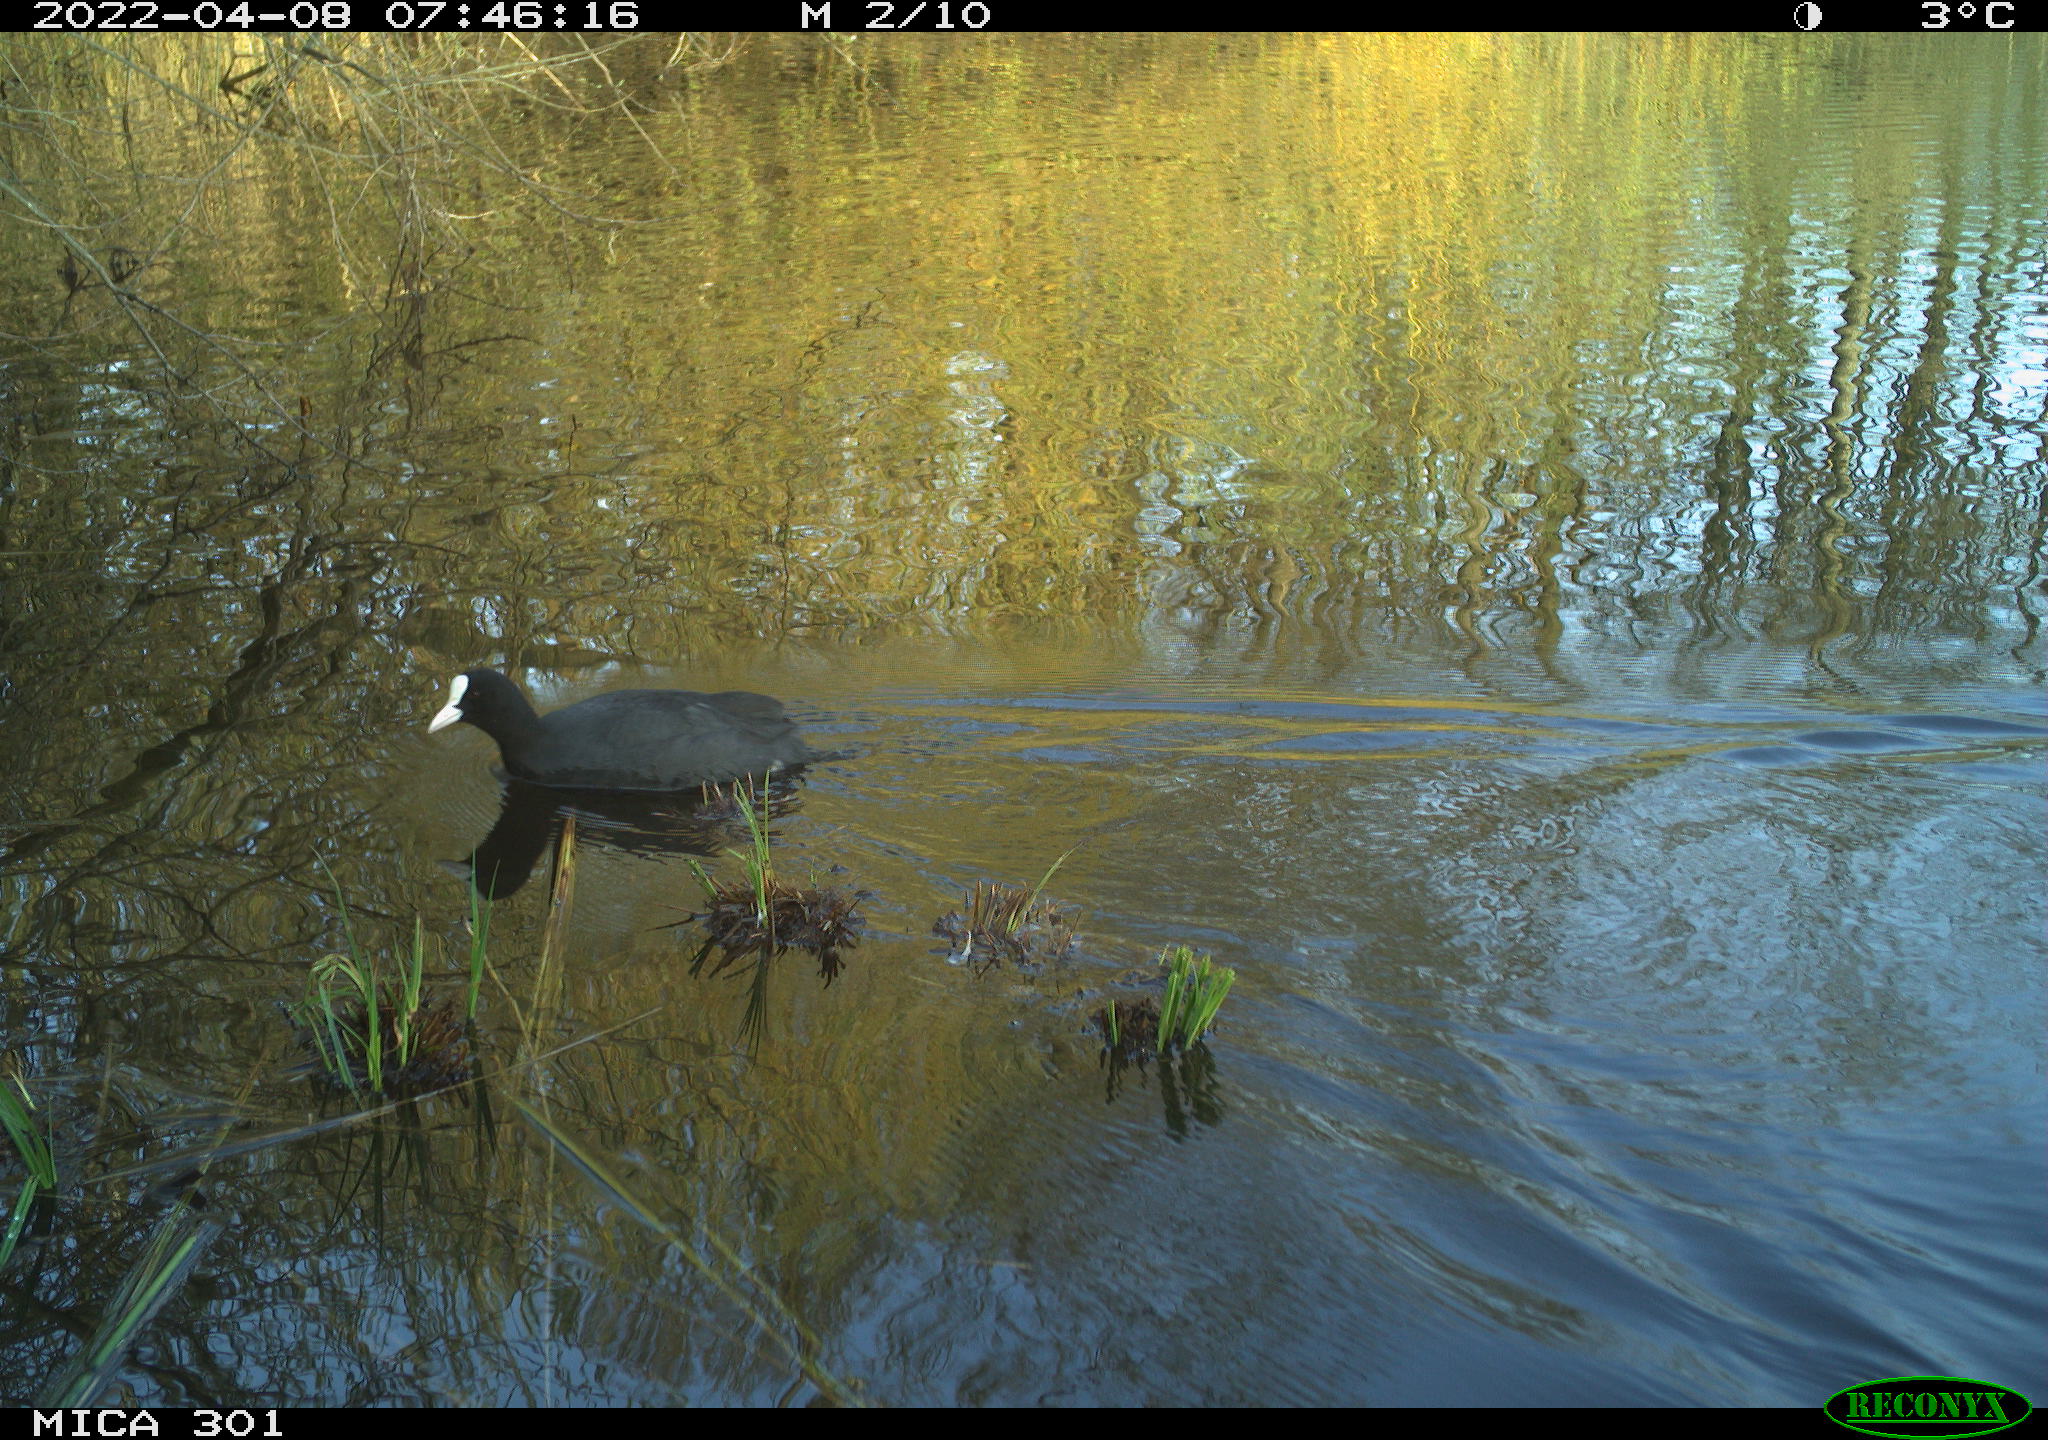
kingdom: Animalia
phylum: Chordata
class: Aves
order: Gruiformes
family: Rallidae
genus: Fulica
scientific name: Fulica atra
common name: Eurasian coot
